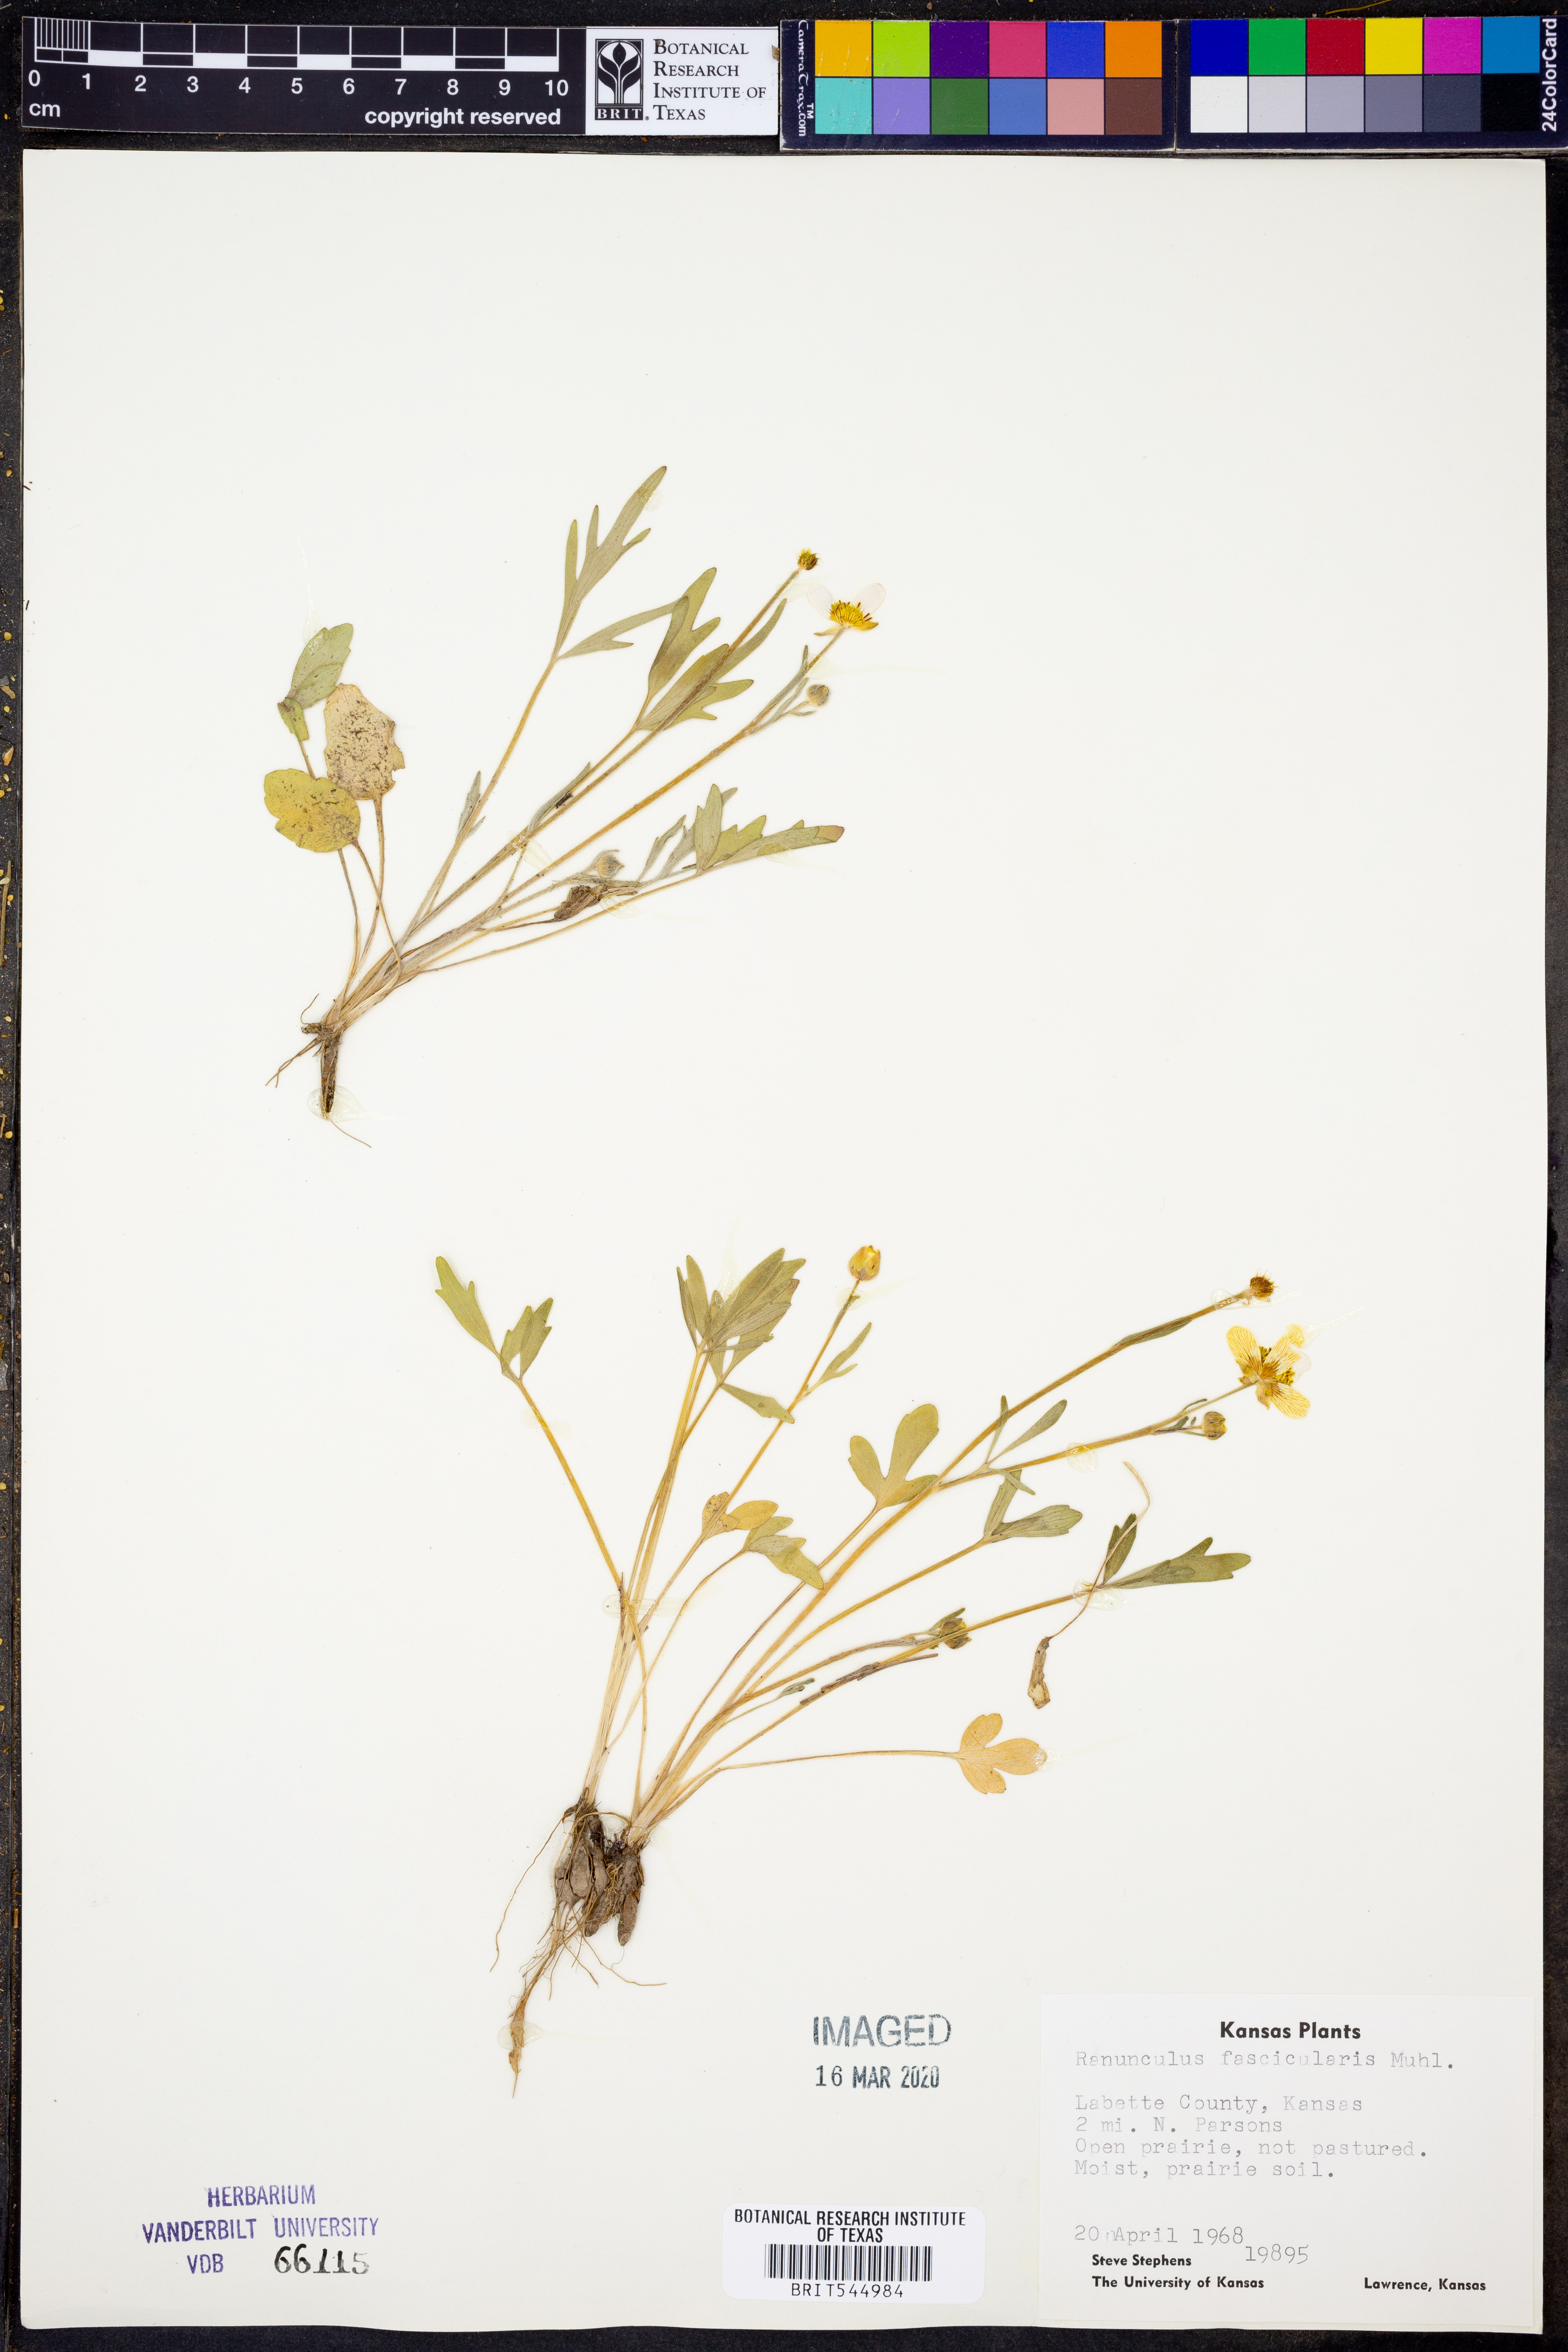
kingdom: Plantae
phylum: Tracheophyta
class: Magnoliopsida
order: Ranunculales
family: Ranunculaceae
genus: Ranunculus
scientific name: Ranunculus fascicularis
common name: Early buttercup
